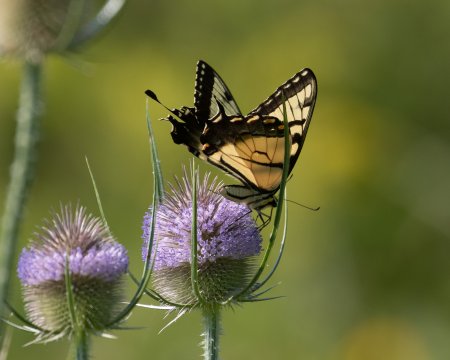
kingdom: Animalia
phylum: Arthropoda
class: Insecta
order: Lepidoptera
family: Papilionidae
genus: Pterourus
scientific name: Pterourus
